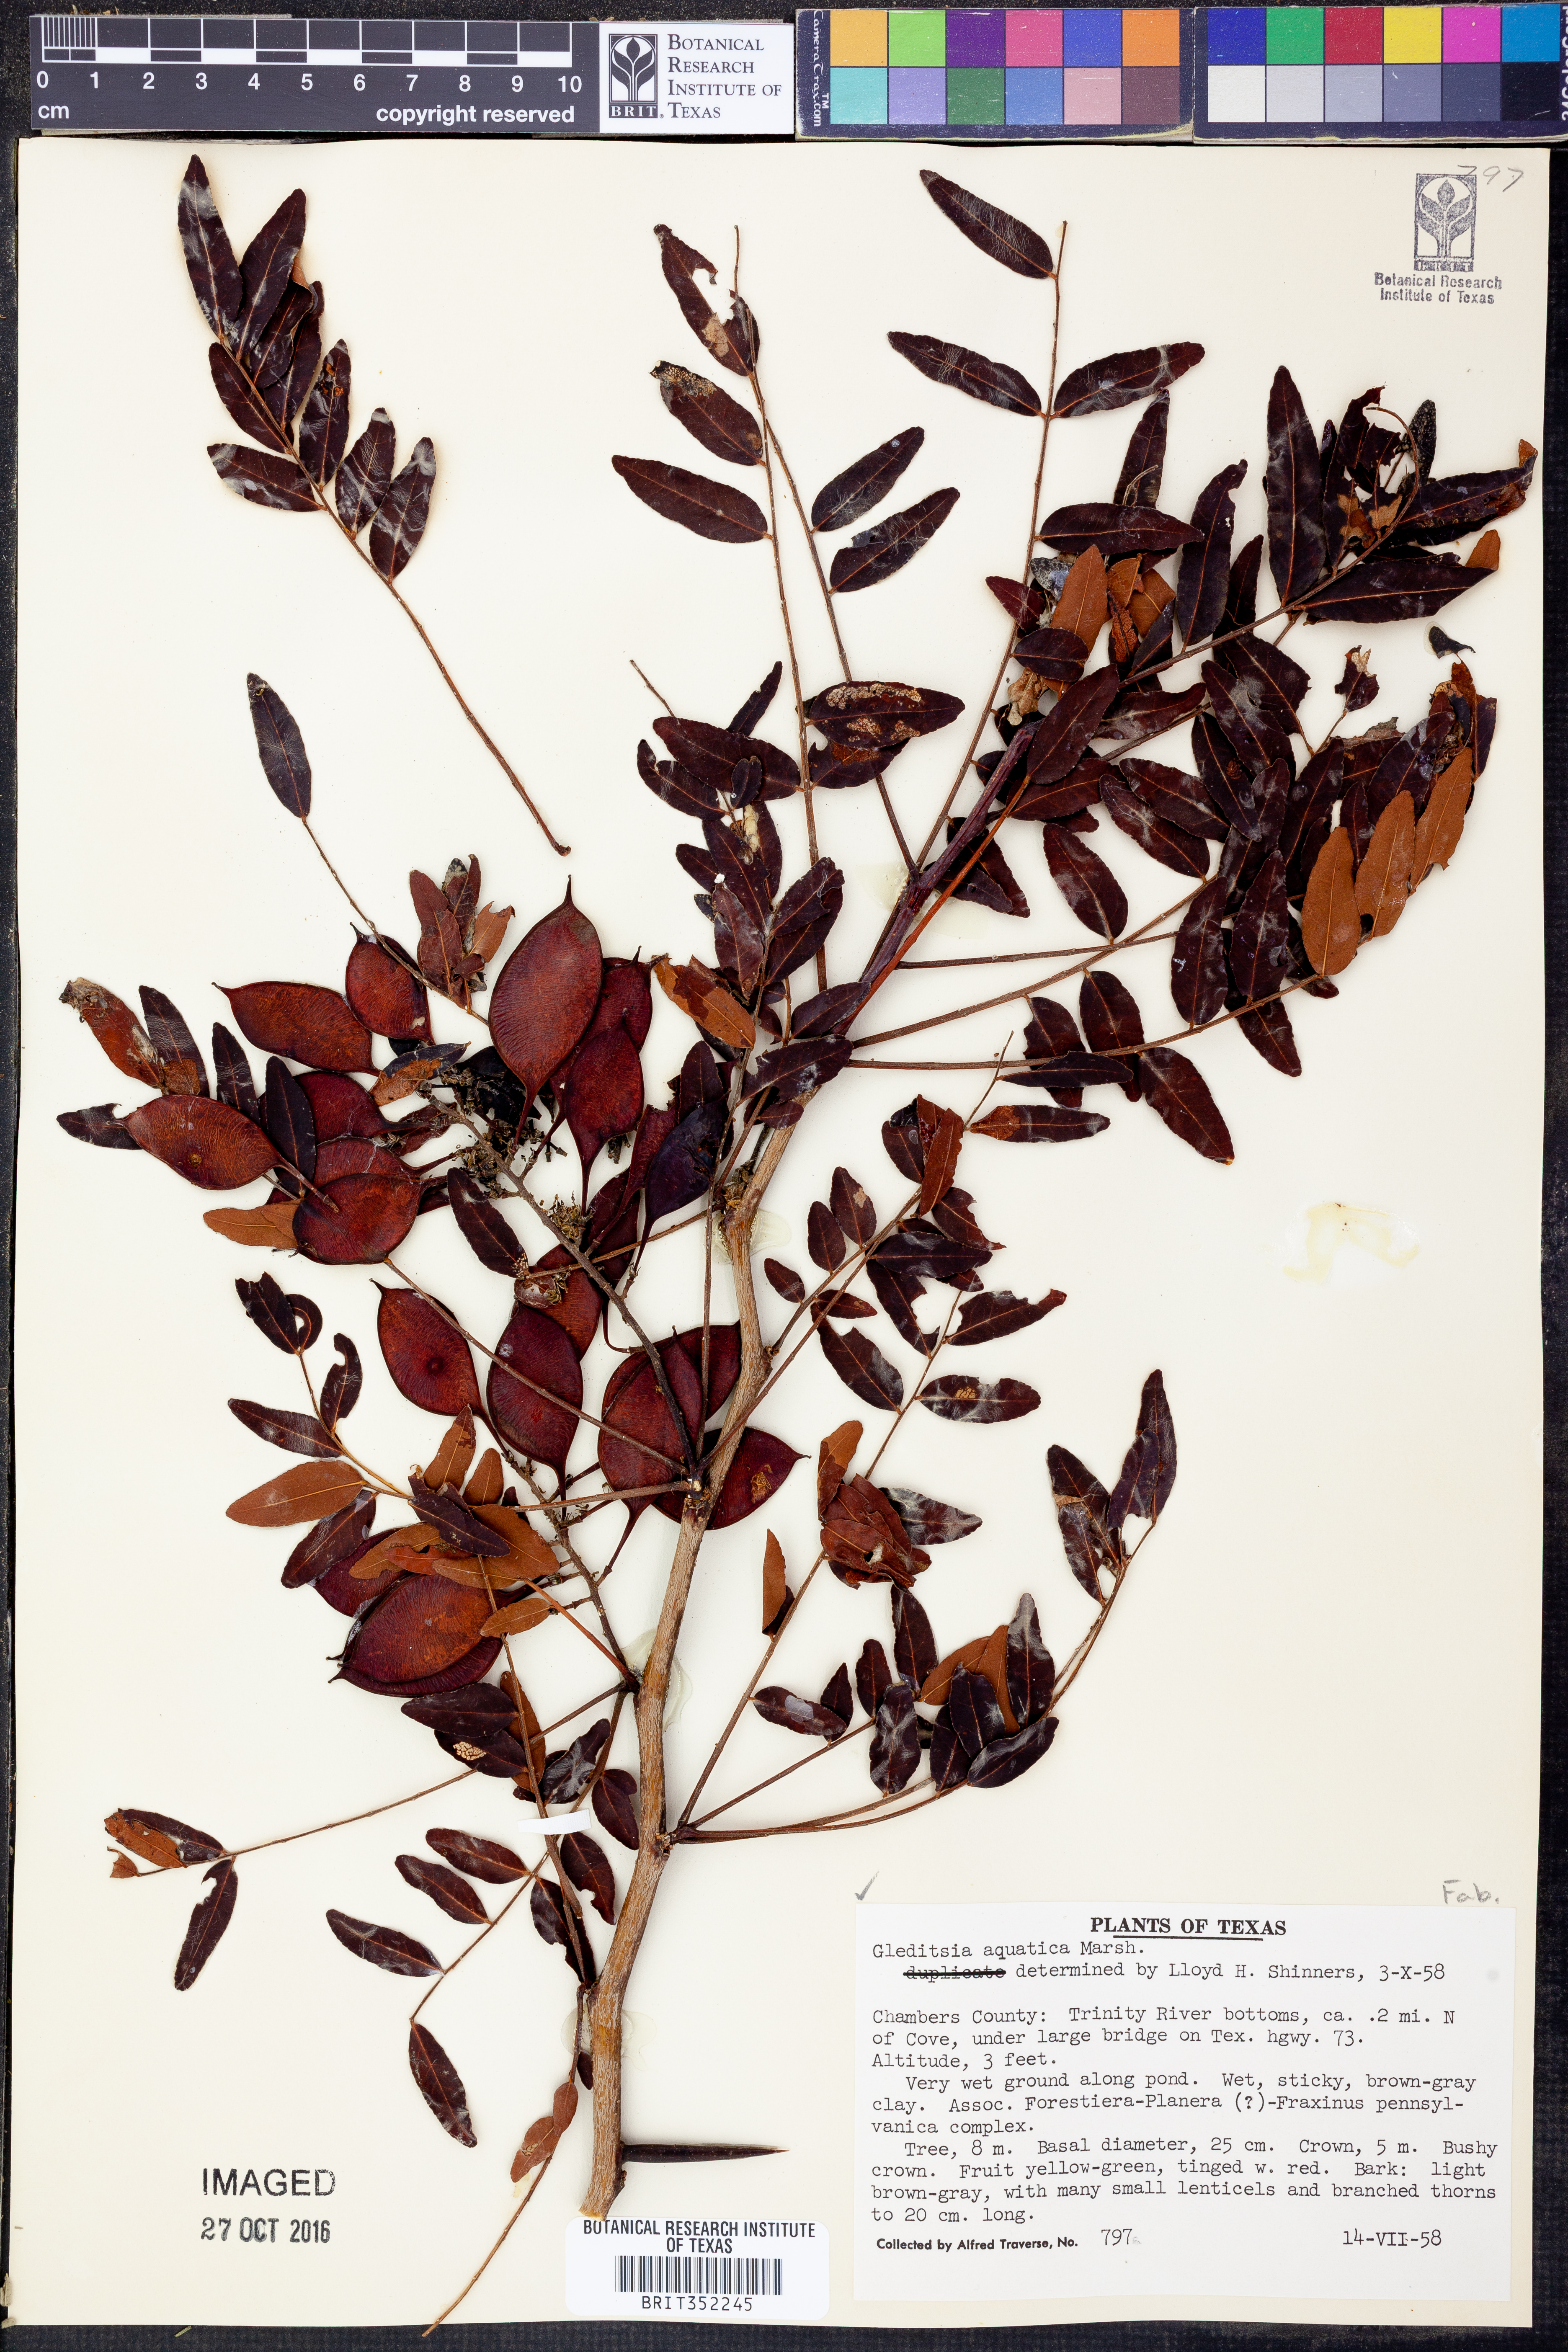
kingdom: Plantae
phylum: Tracheophyta
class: Magnoliopsida
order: Fabales
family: Fabaceae
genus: Gleditsia
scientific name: Gleditsia aquatica
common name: Swamp-locust
